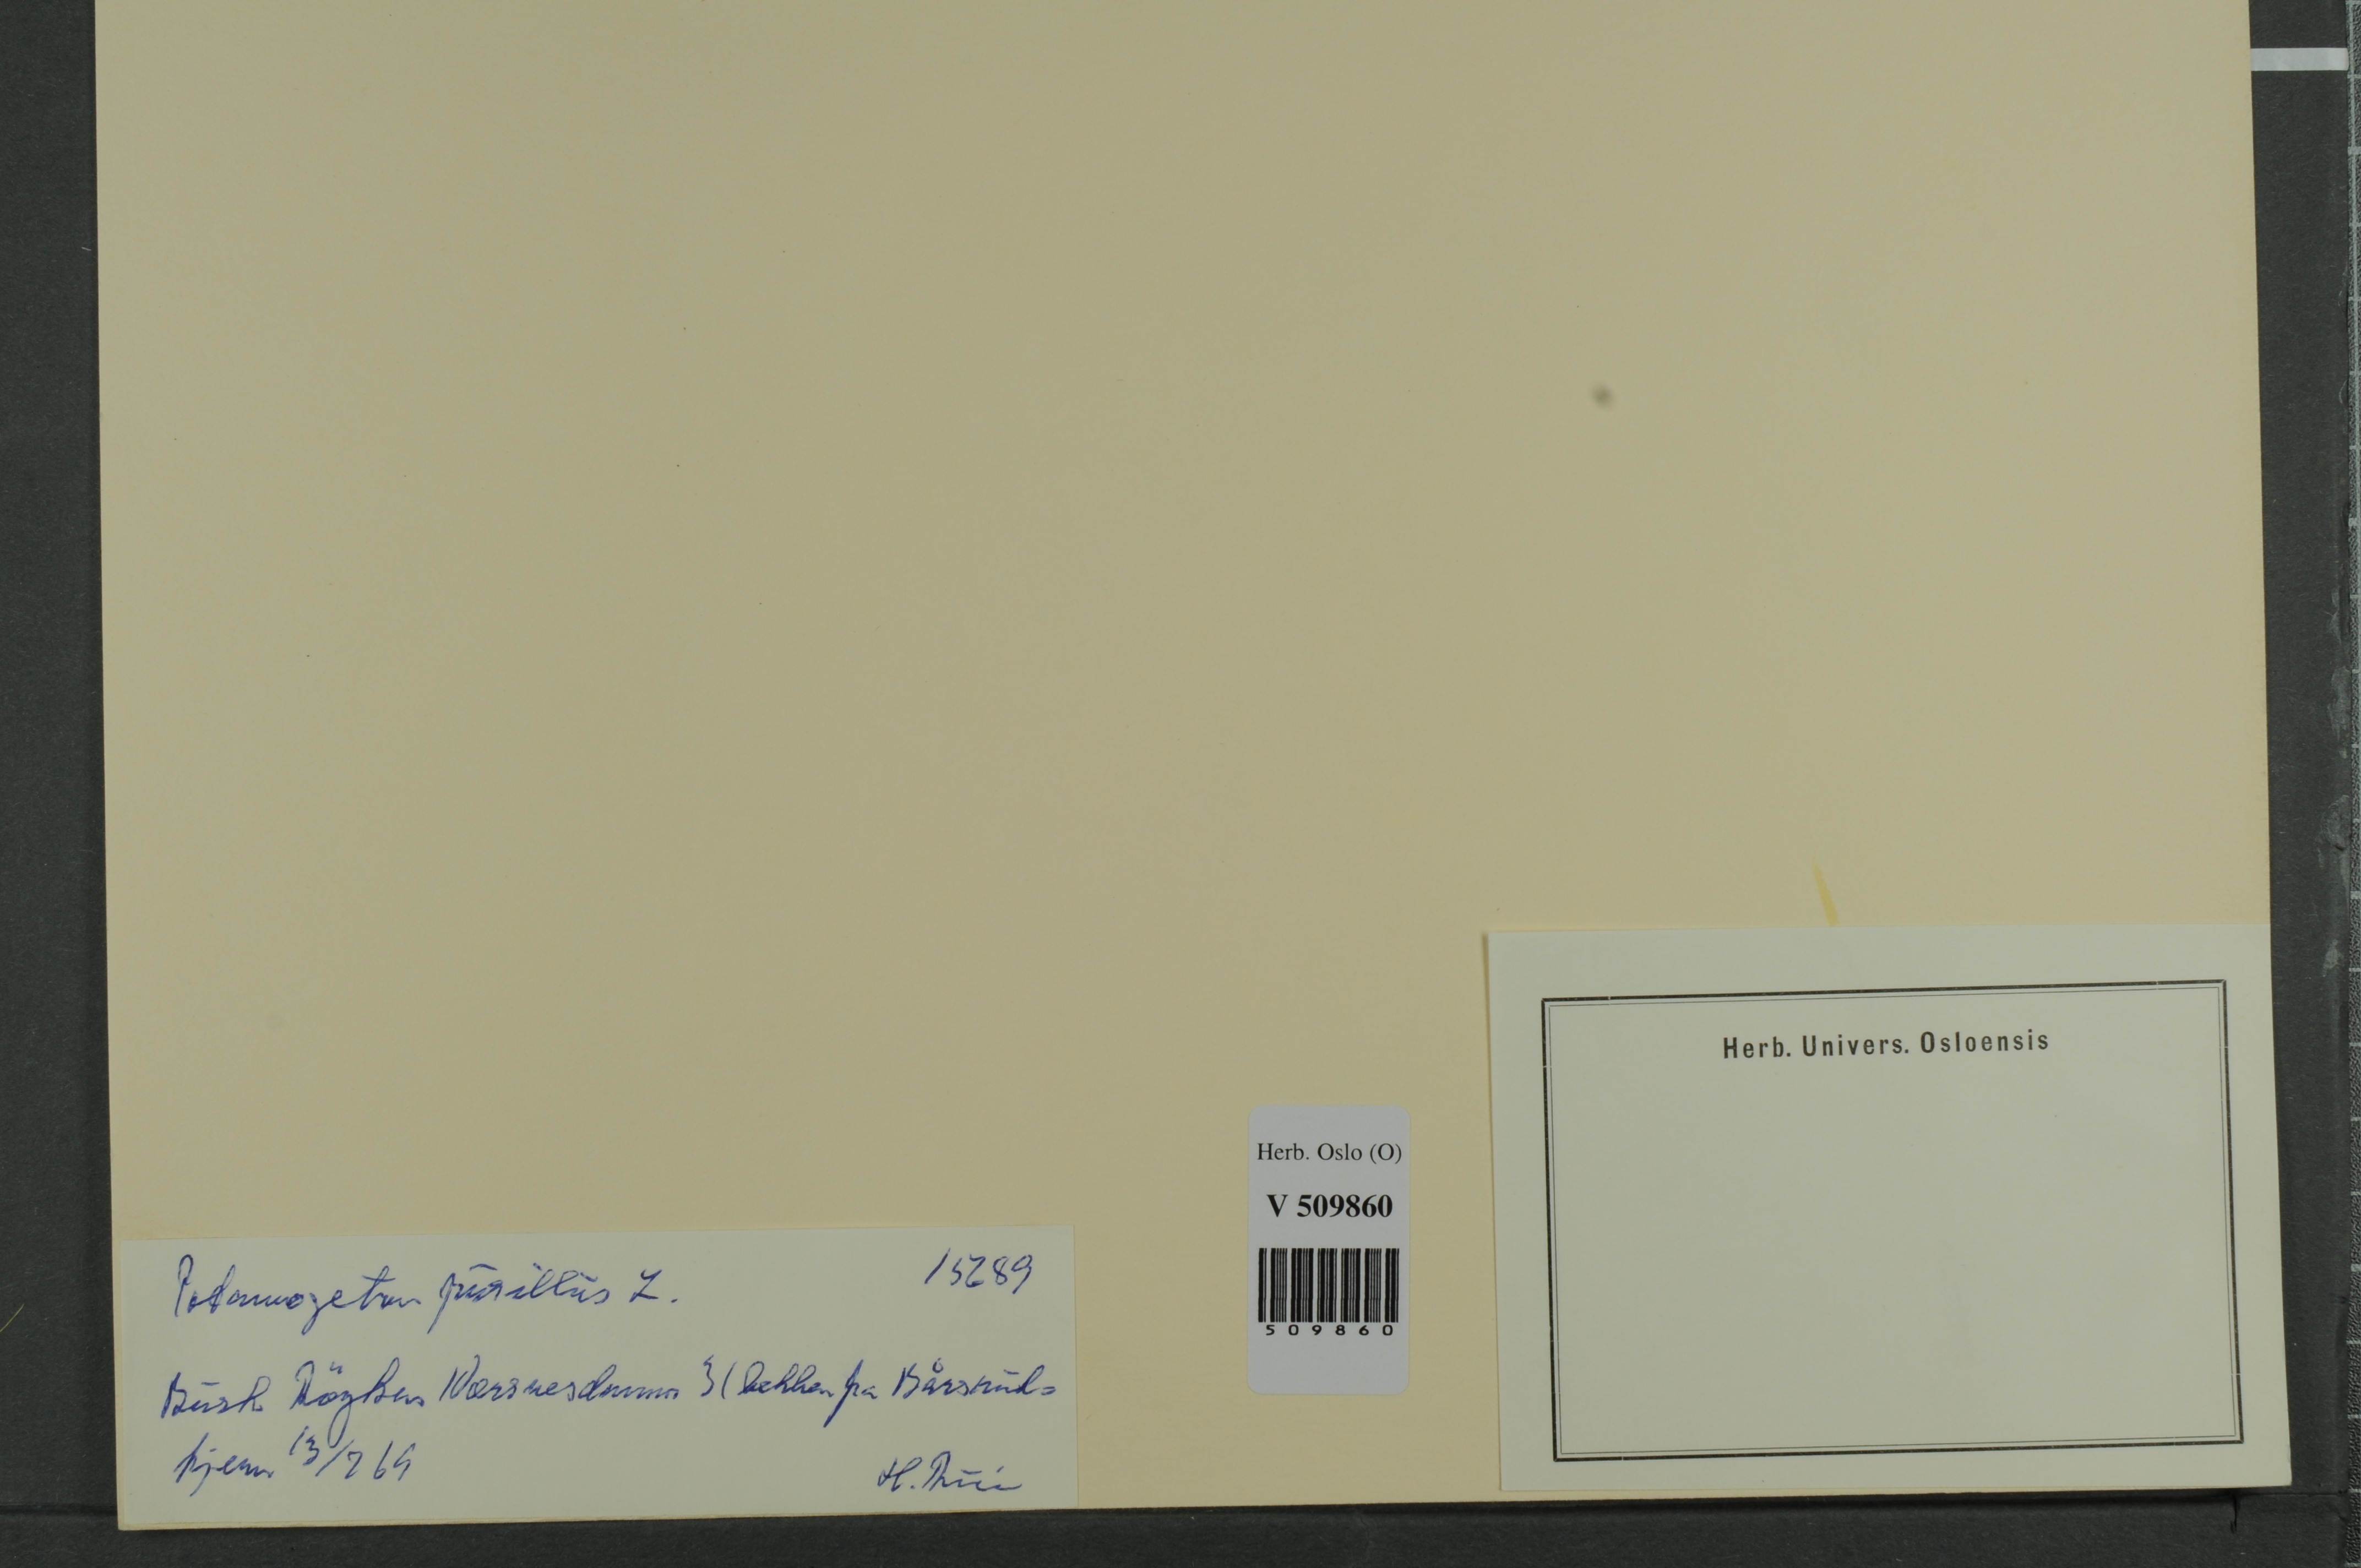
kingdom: Plantae
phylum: Tracheophyta
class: Liliopsida
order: Alismatales
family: Potamogetonaceae
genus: Potamogeton
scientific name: Potamogeton berchtoldii
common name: Small pondweed
